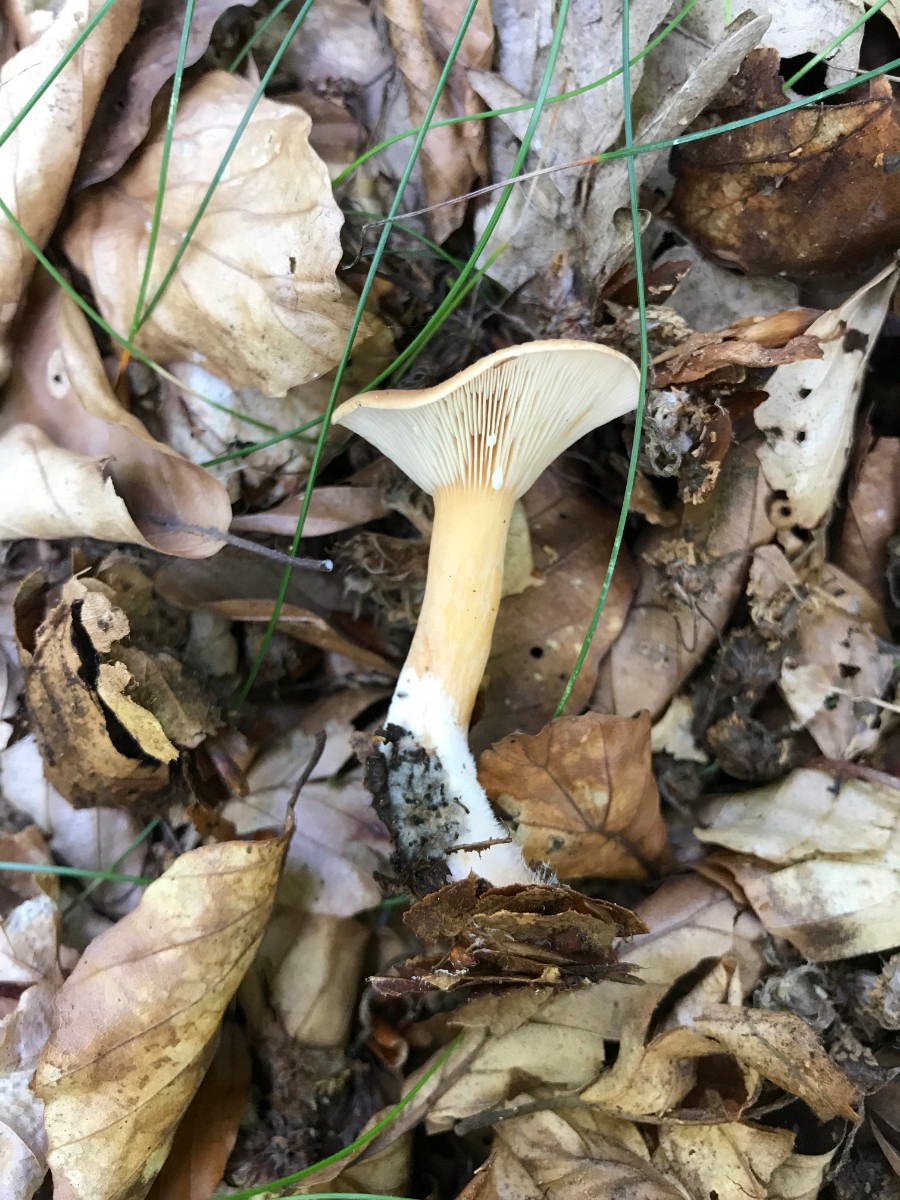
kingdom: Fungi
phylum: Basidiomycota
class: Agaricomycetes
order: Russulales
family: Russulaceae
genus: Lactarius
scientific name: Lactarius subdulcis
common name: sødlig mælkehat
